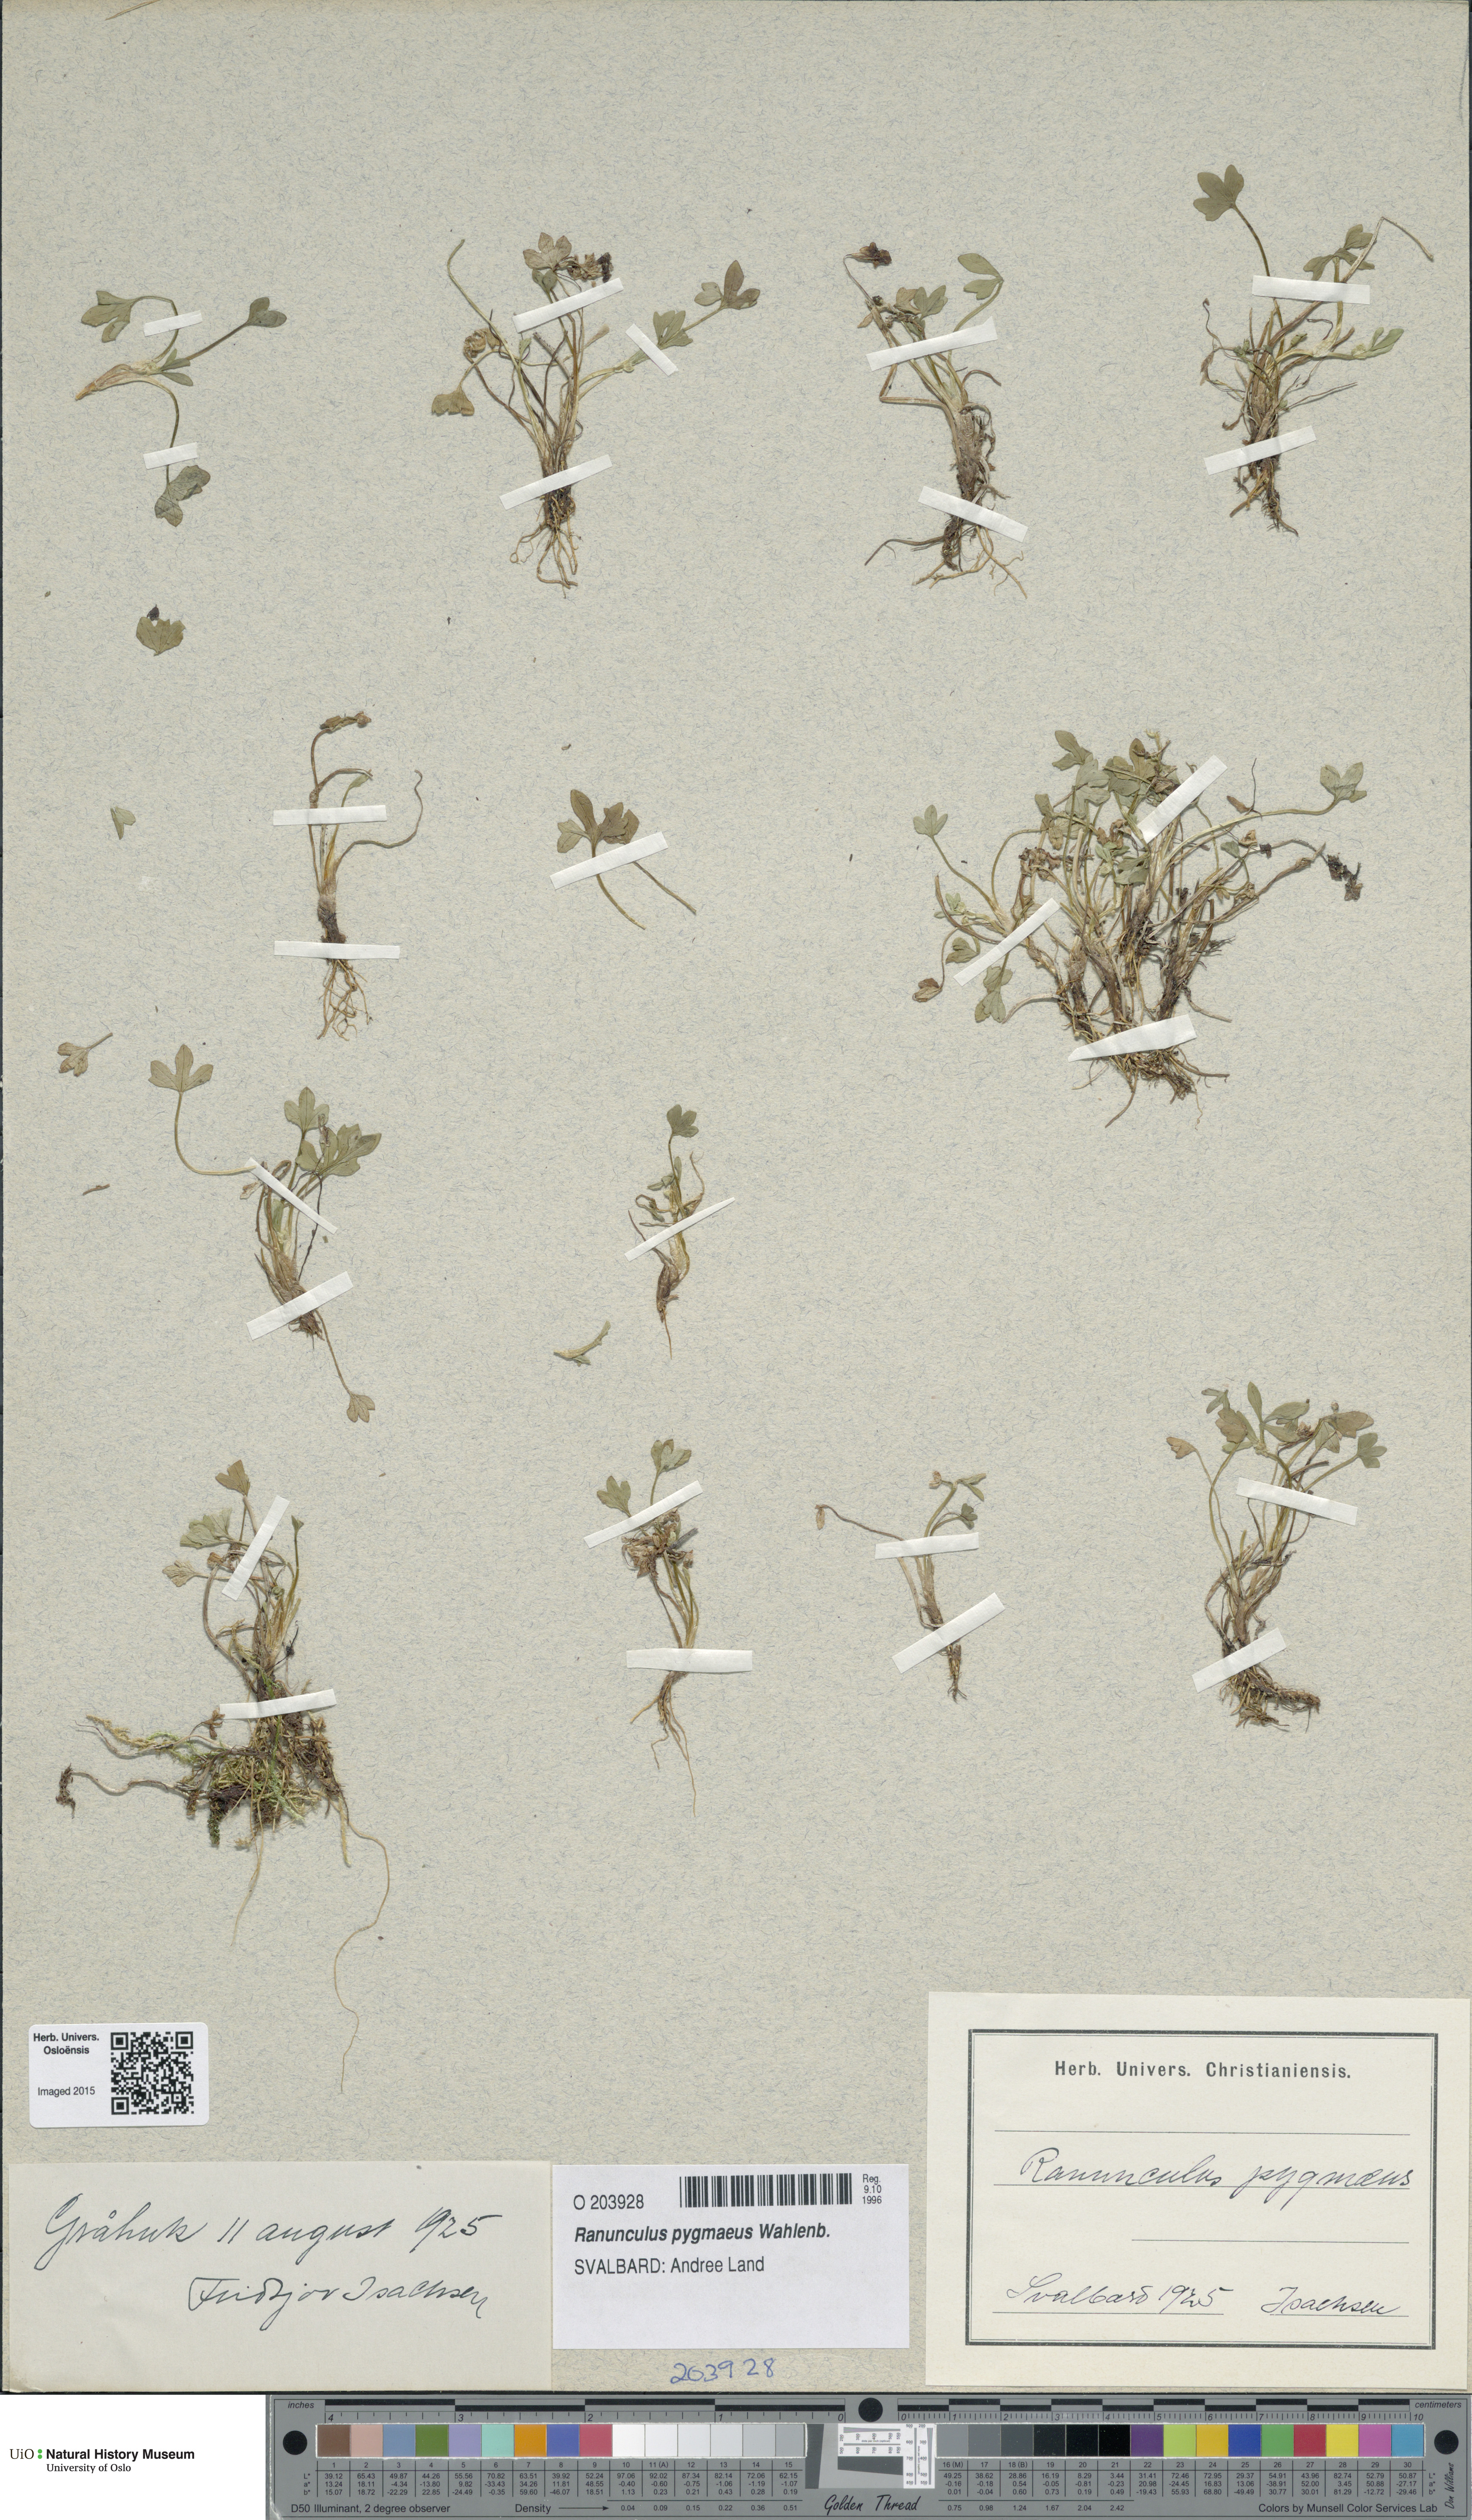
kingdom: Plantae
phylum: Tracheophyta
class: Magnoliopsida
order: Ranunculales
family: Ranunculaceae
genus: Ranunculus
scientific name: Ranunculus pygmaeus
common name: Dwarf buttercup
